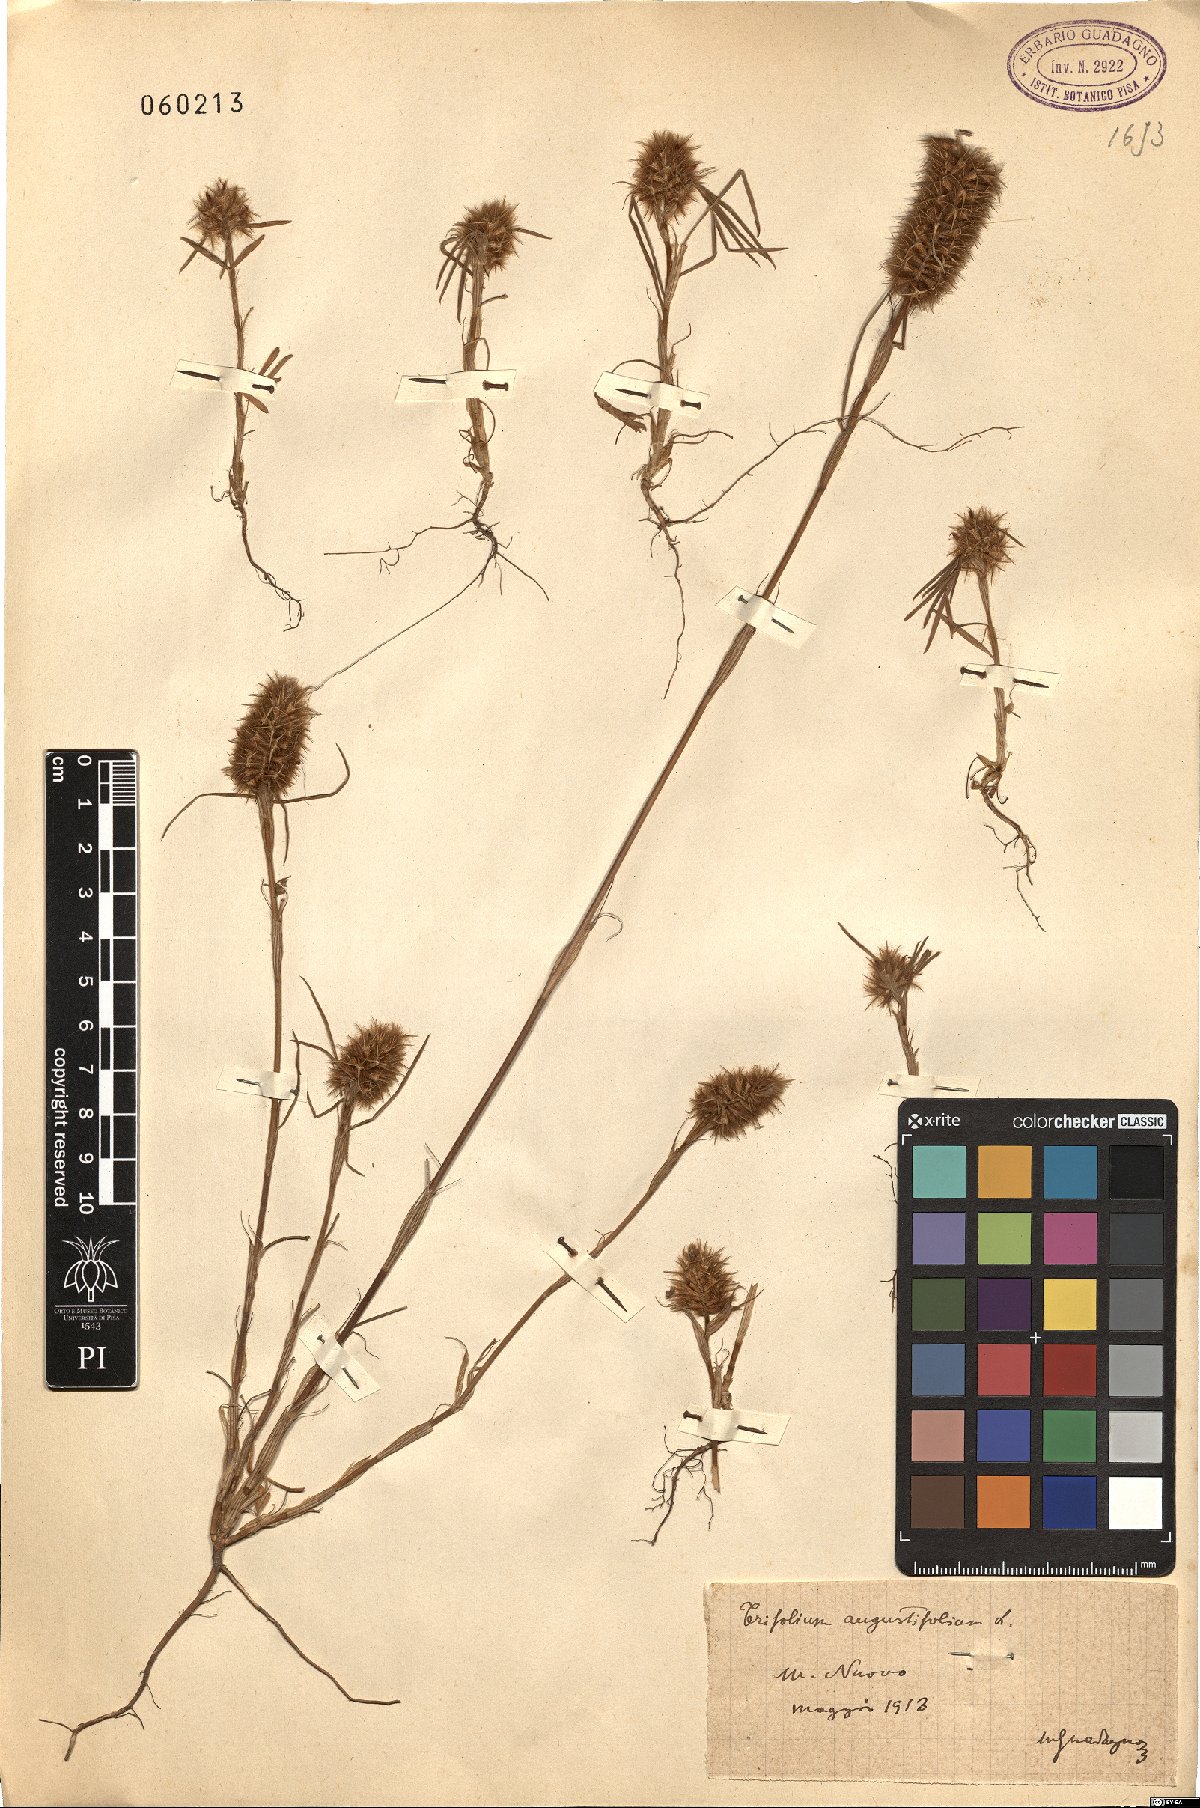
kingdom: Plantae
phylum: Tracheophyta
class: Magnoliopsida
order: Fabales
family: Fabaceae
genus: Trifolium
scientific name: Trifolium angustifolium
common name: Narrow clover
